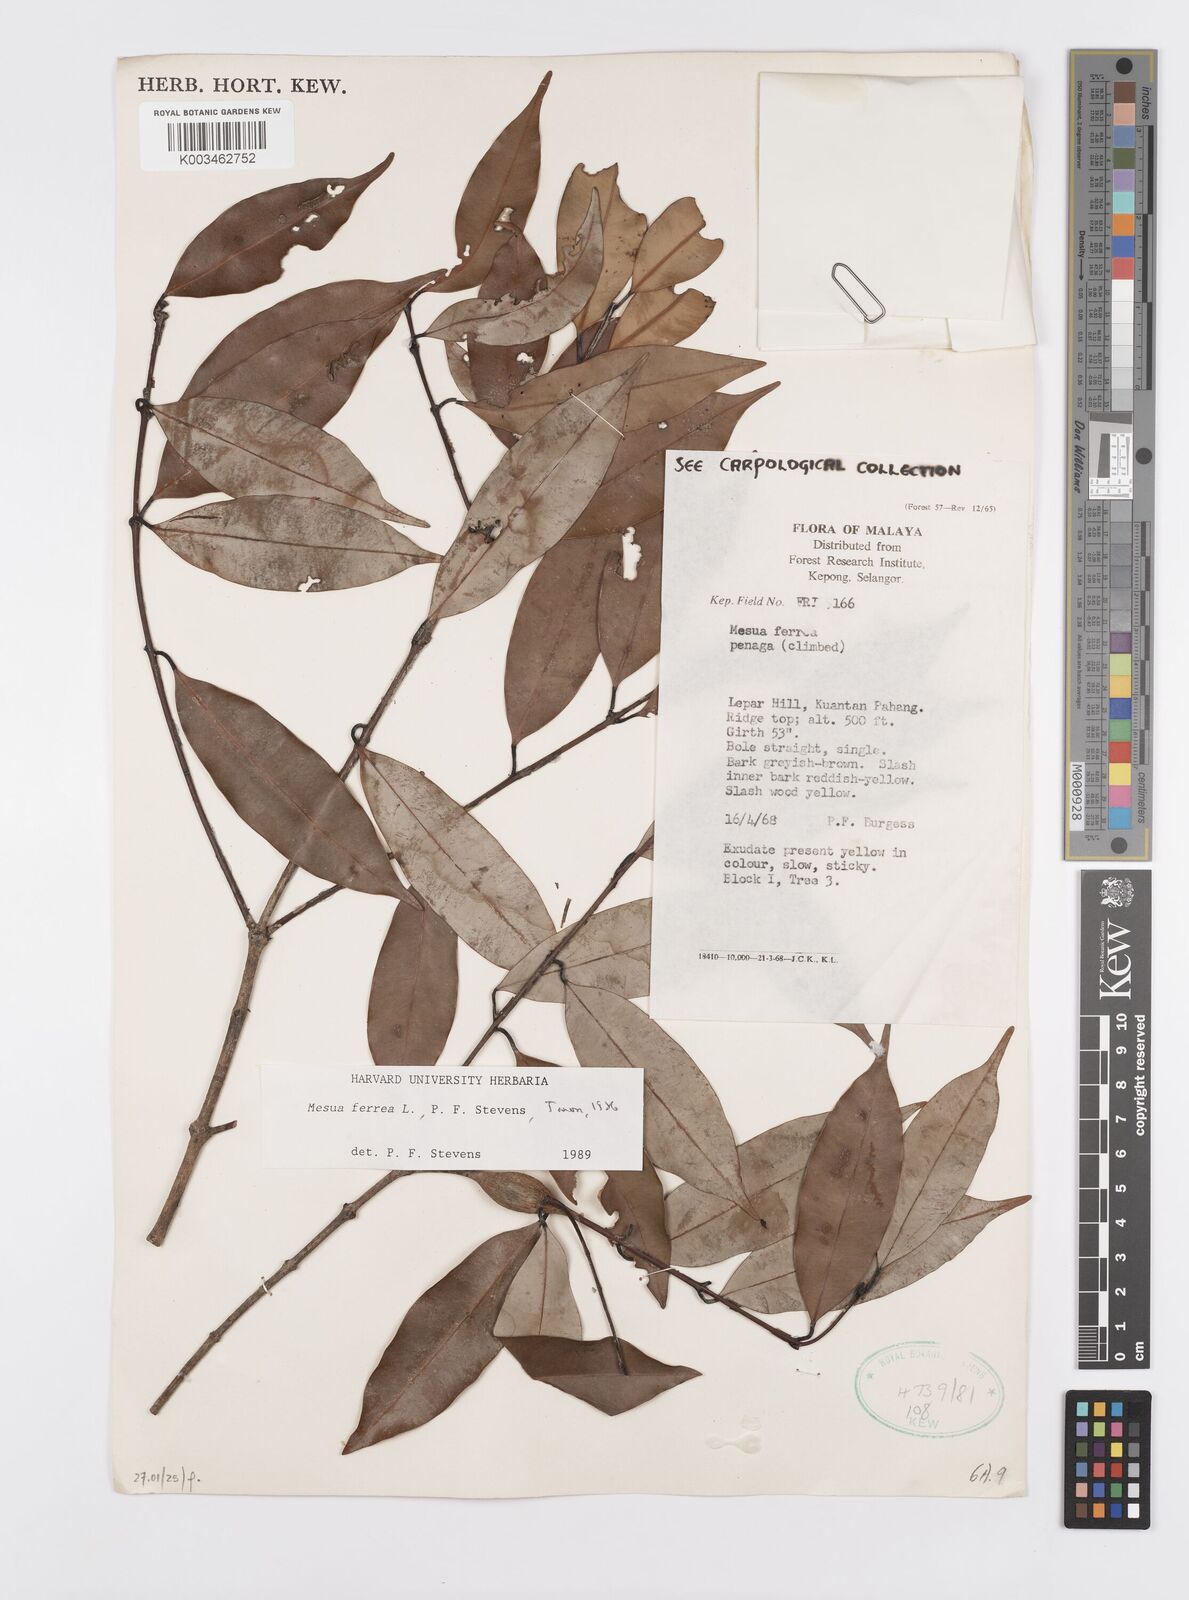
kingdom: Plantae
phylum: Tracheophyta
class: Magnoliopsida
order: Malpighiales
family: Calophyllaceae
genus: Mesua
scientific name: Mesua ferrea
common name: Mesua
